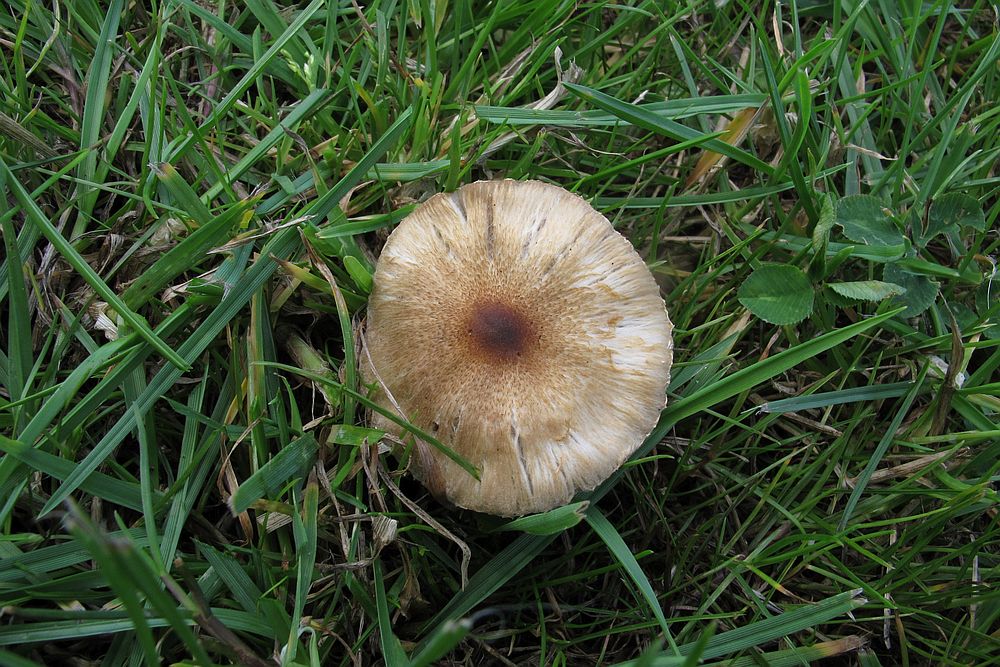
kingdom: Fungi
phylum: Basidiomycota
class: Agaricomycetes
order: Agaricales
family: Inocybaceae
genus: Inocybe
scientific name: Inocybe curvipes
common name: plæne-trævlhat
